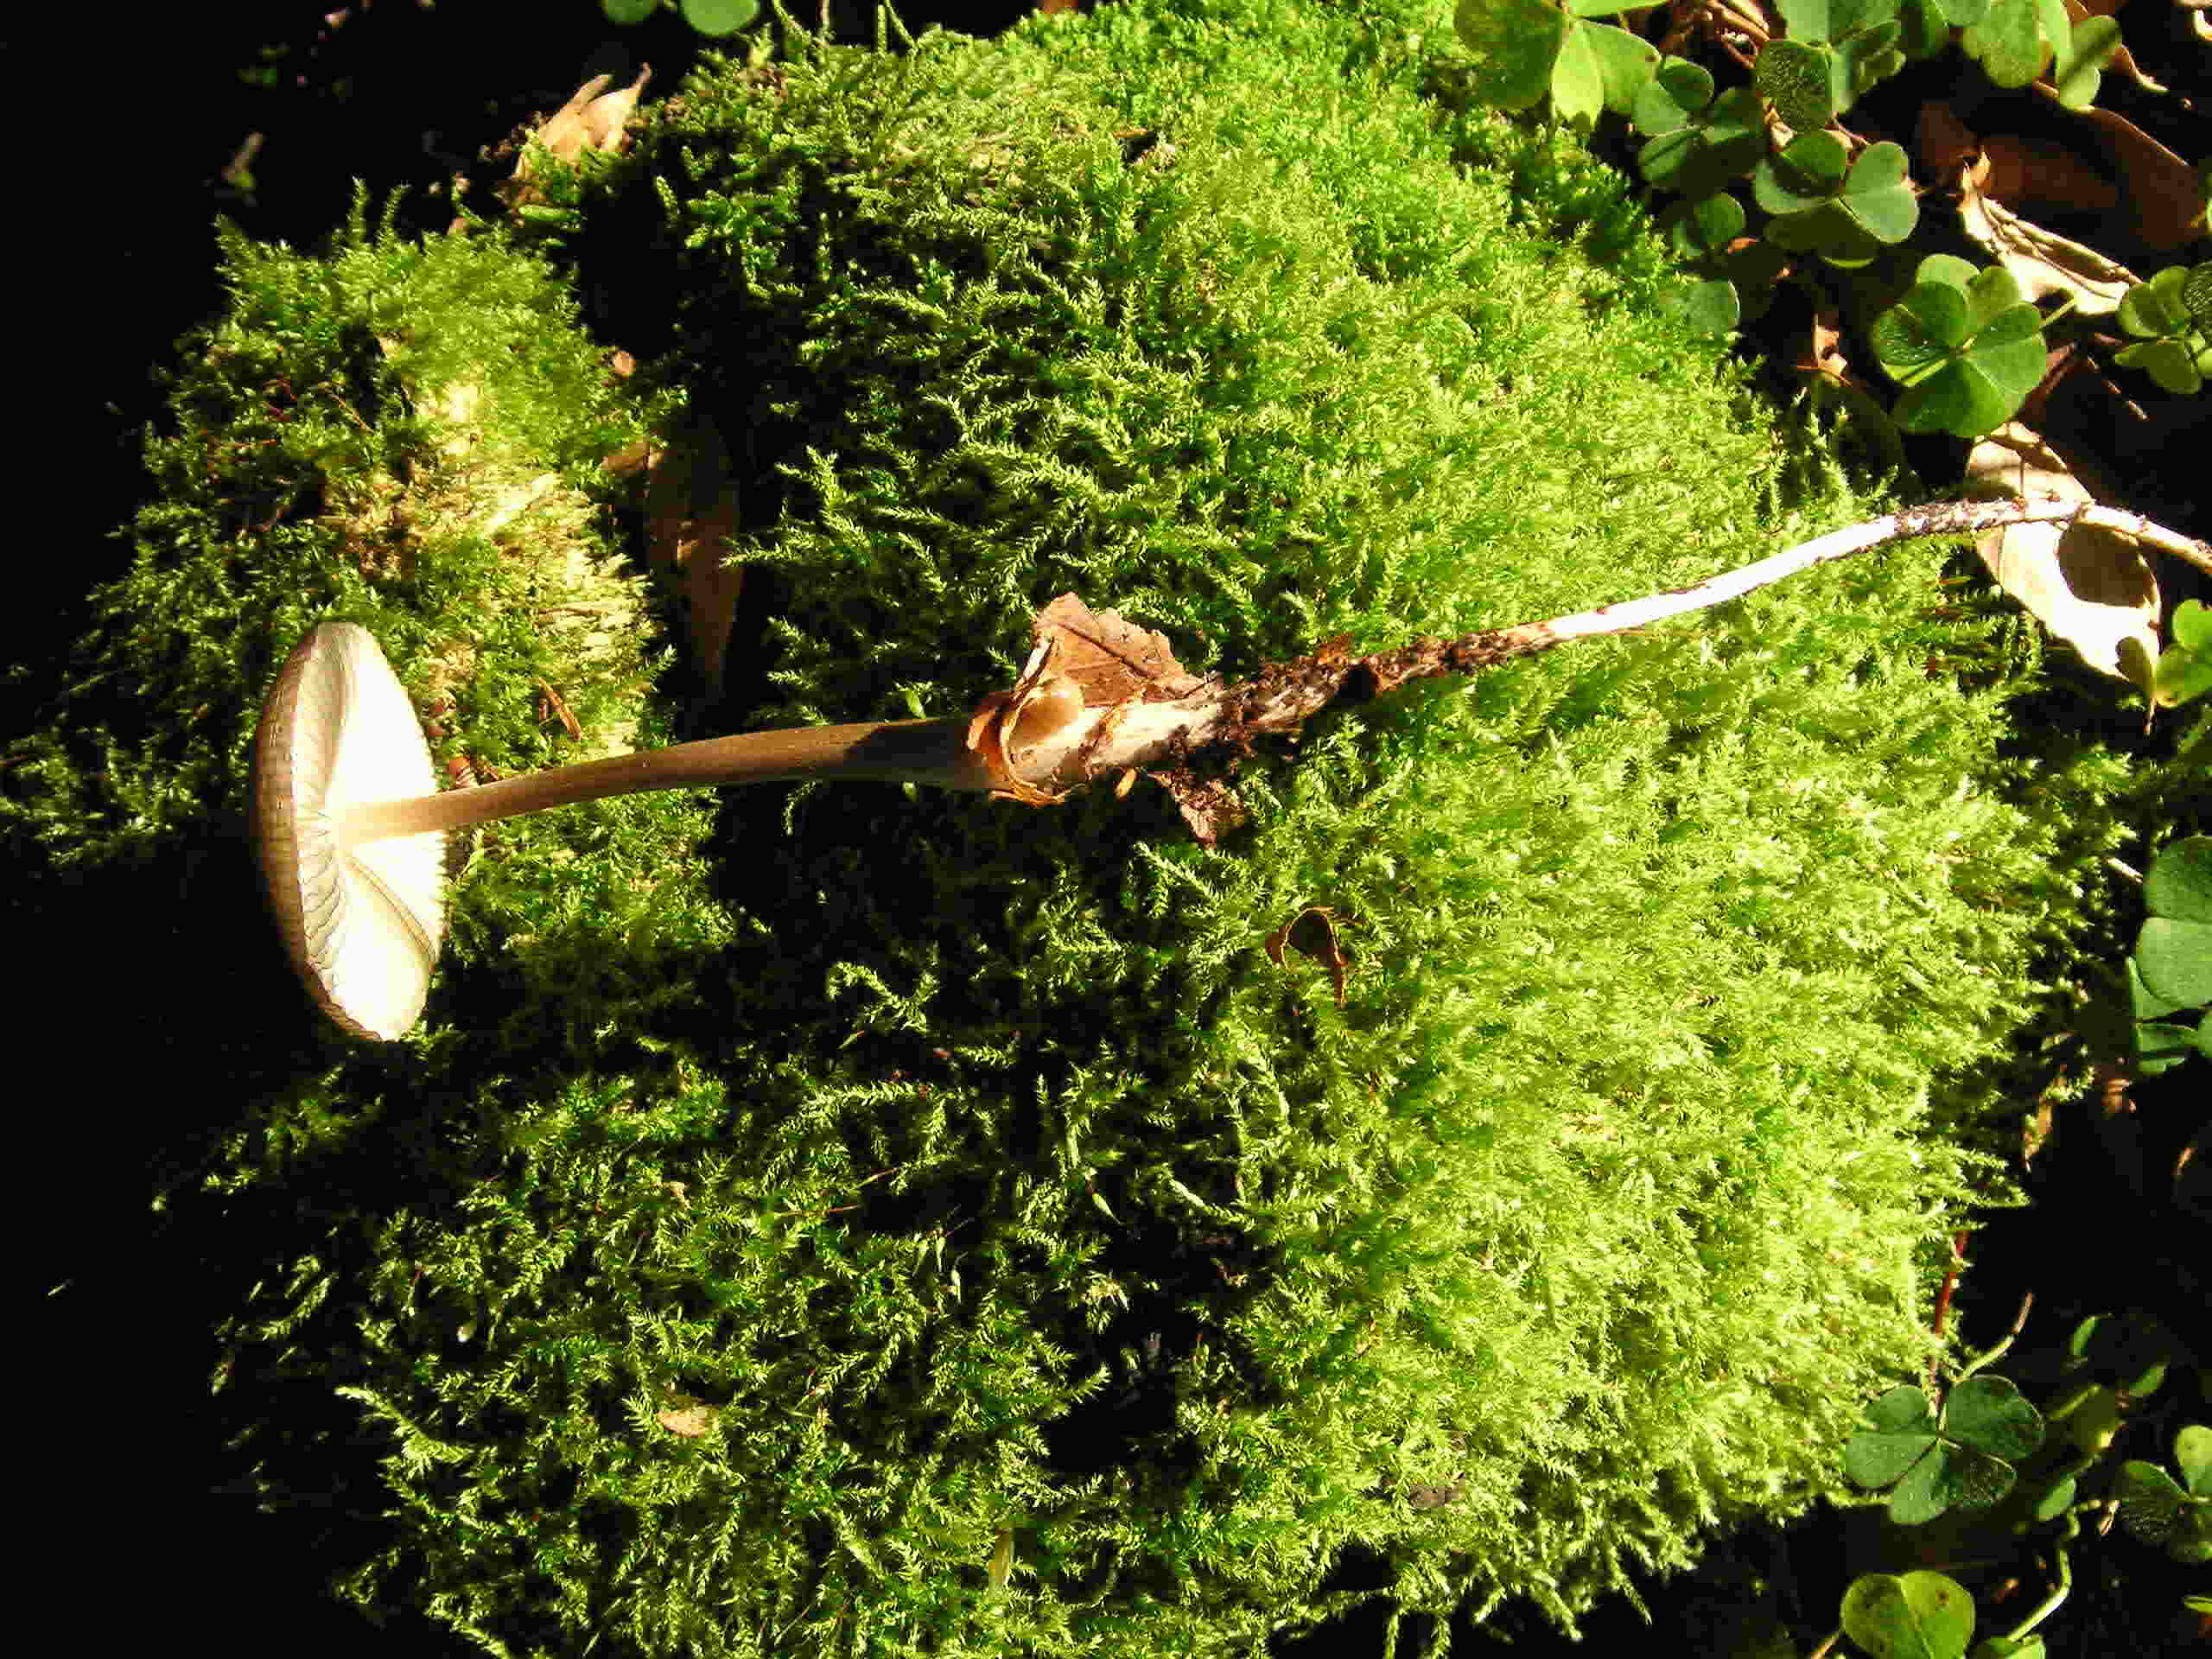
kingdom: Fungi
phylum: Basidiomycota
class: Agaricomycetes
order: Agaricales
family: Physalacriaceae
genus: Hymenopellis
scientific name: Hymenopellis radicata
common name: almindelig pælerodshat
